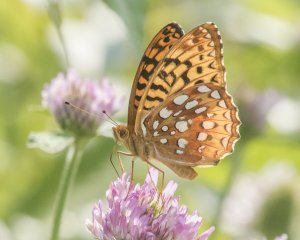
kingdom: Animalia
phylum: Arthropoda
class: Insecta
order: Lepidoptera
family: Nymphalidae
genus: Speyeria
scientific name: Speyeria cybele
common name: Great Spangled Fritillary
